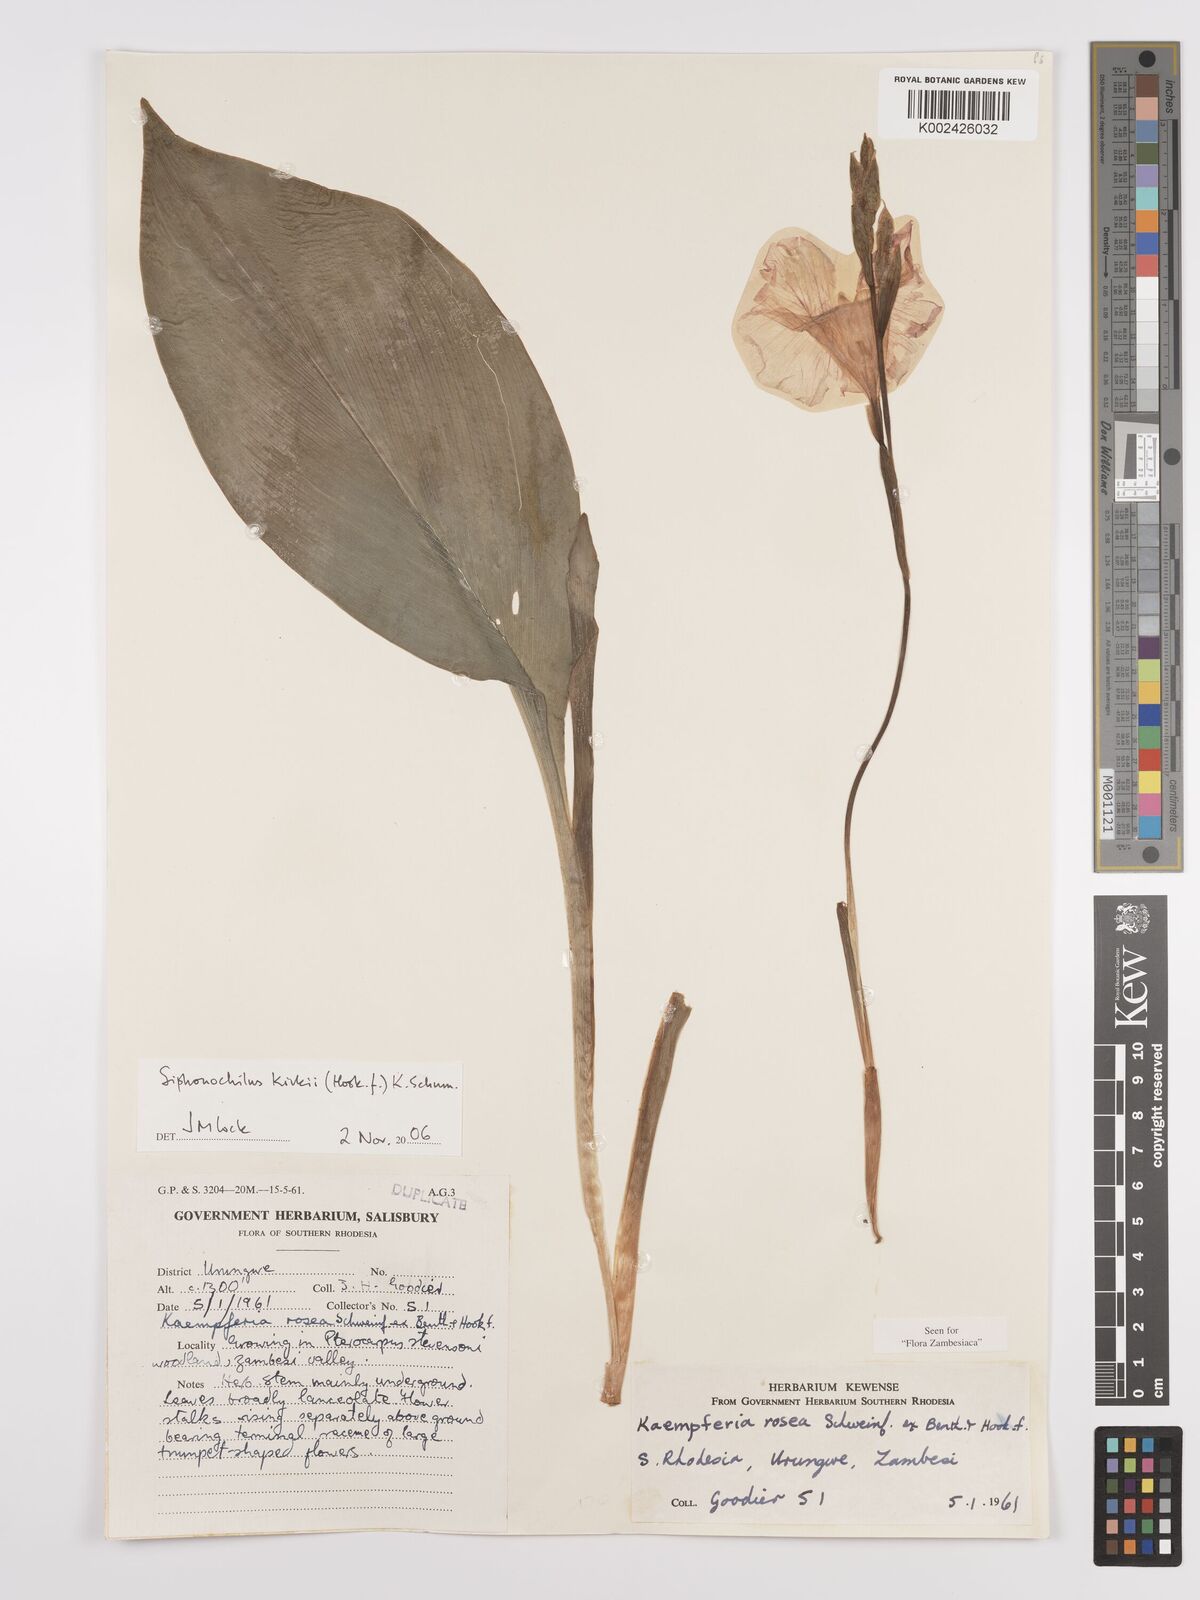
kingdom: Plantae
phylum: Tracheophyta
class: Liliopsida
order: Zingiberales
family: Zingiberaceae
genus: Siphonochilus
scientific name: Siphonochilus kirkii
